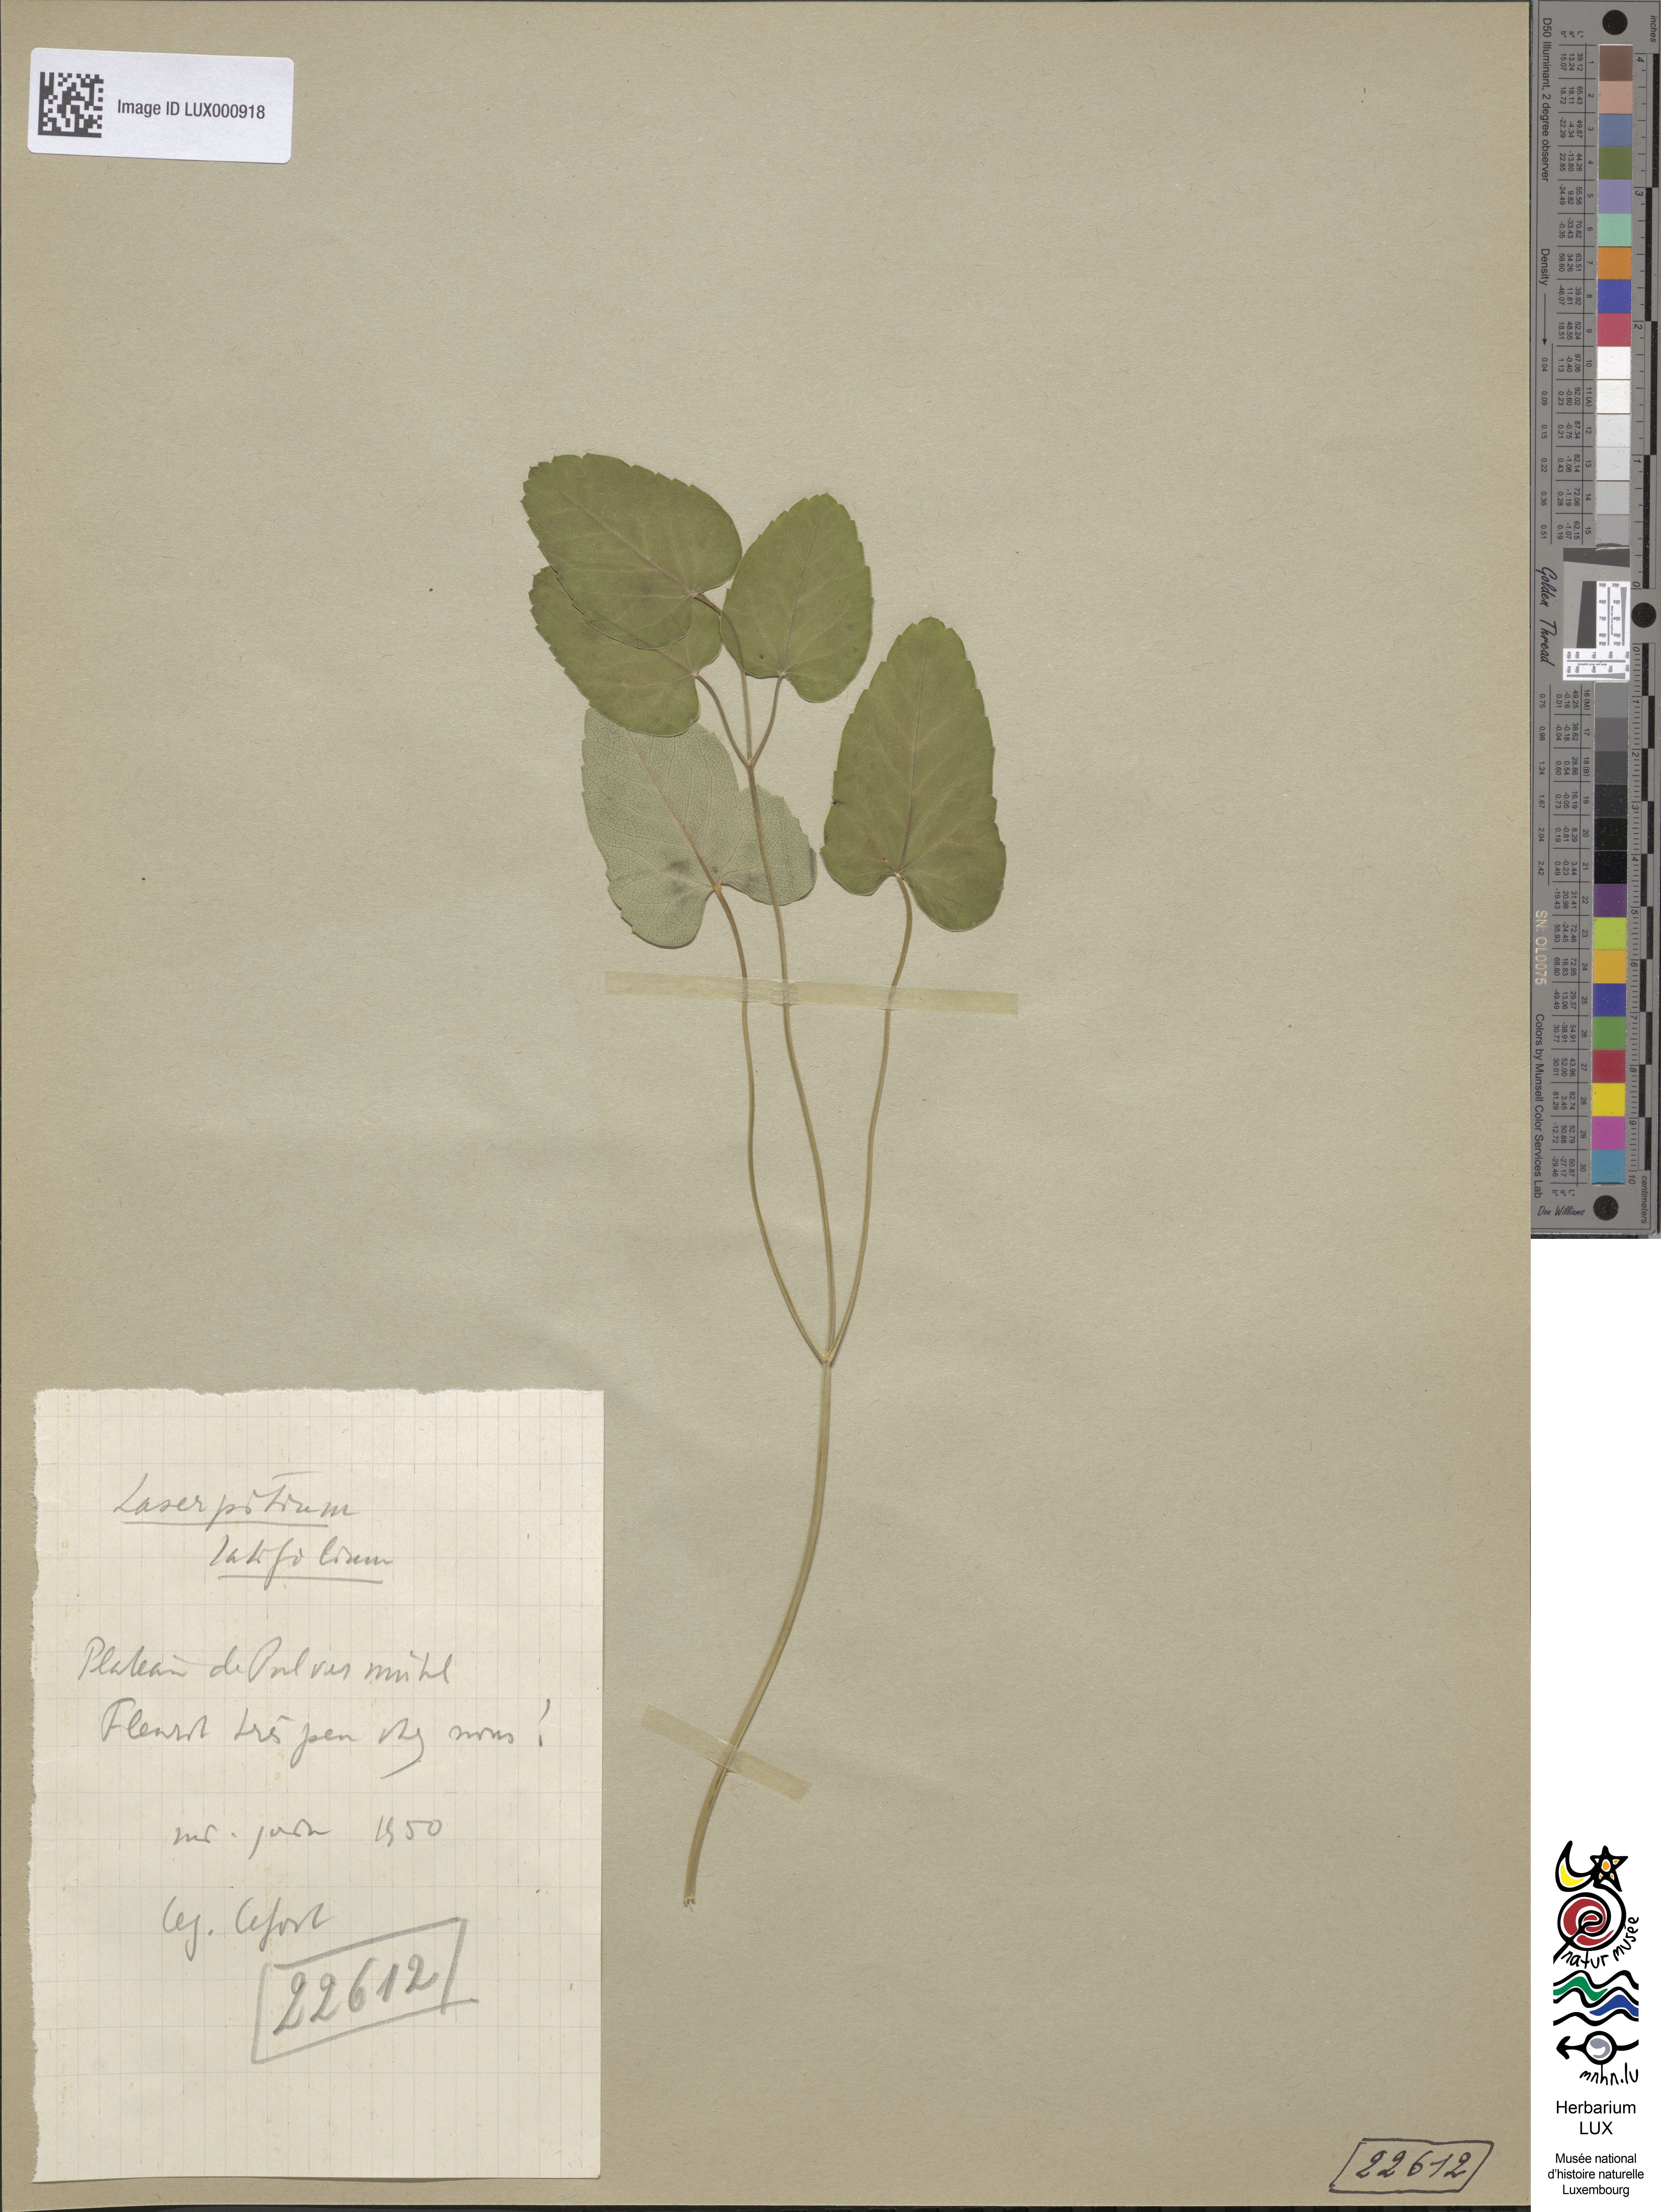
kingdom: Plantae
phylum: Tracheophyta
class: Magnoliopsida
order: Apiales
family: Apiaceae
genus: Laserpitium
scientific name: Laserpitium latifolium
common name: Broadleaf sermountain
